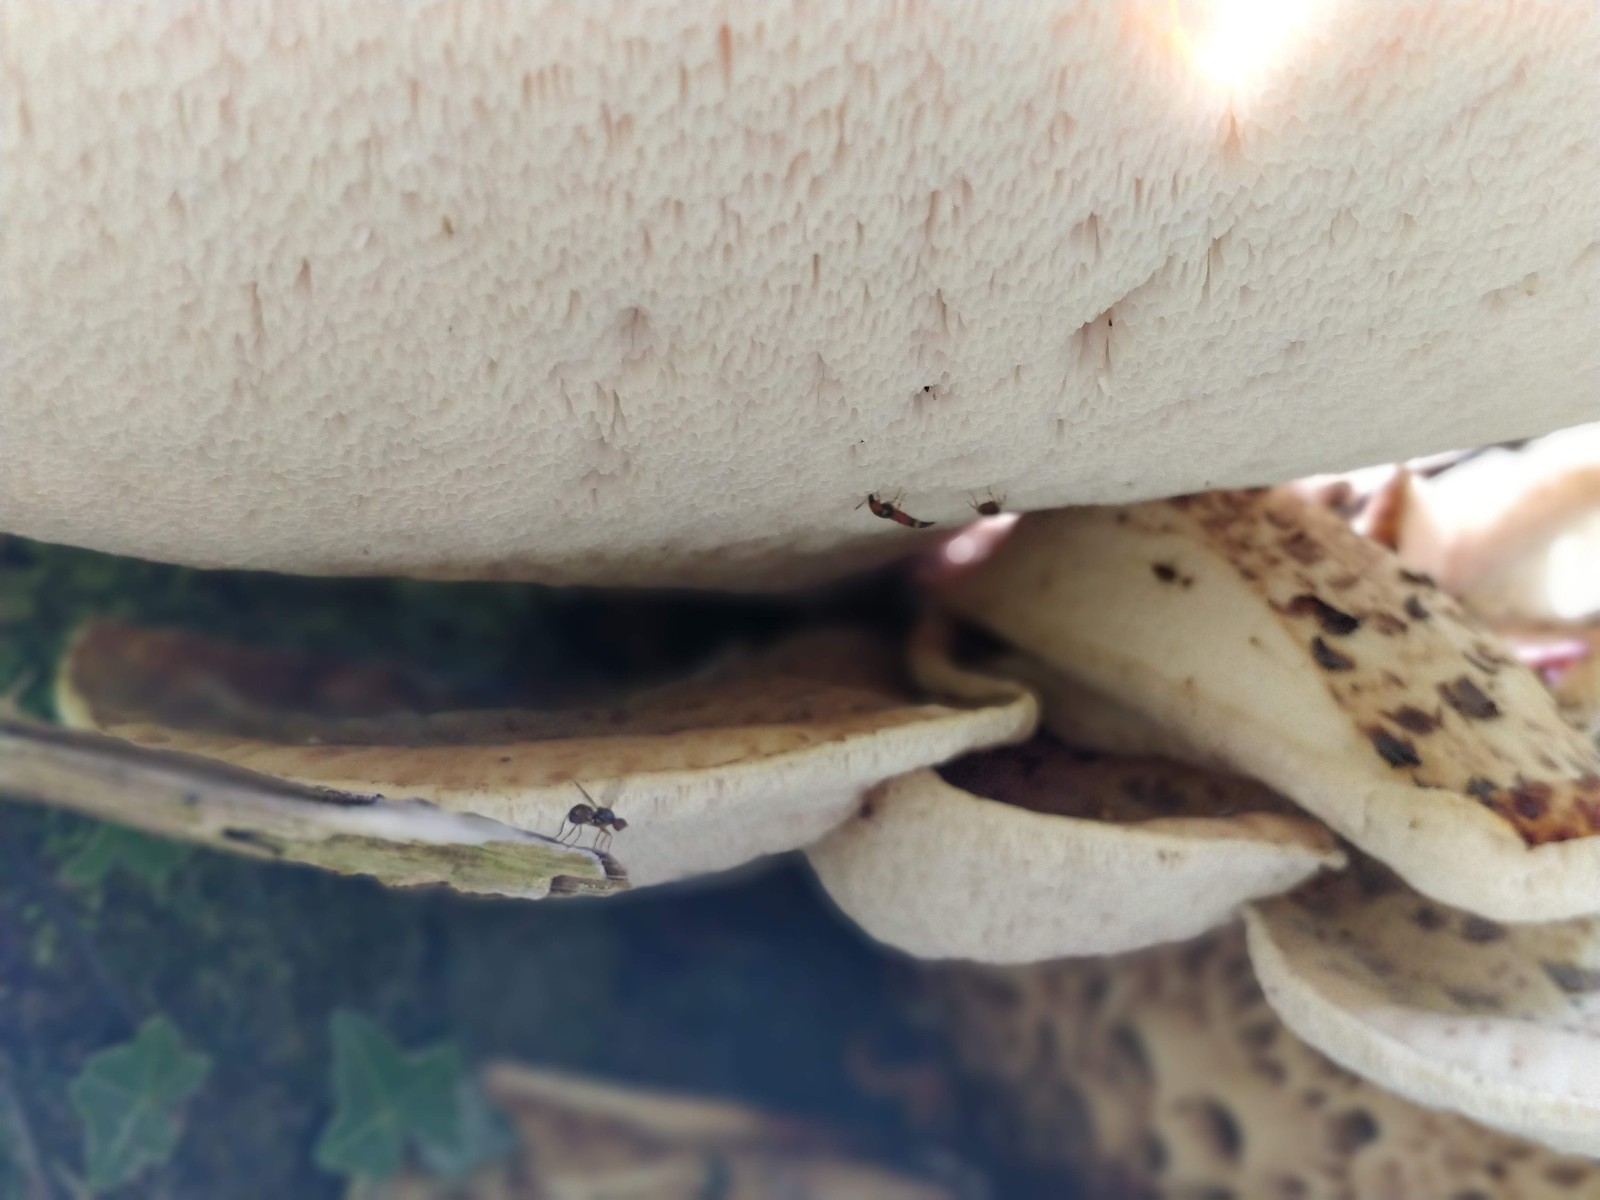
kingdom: Fungi
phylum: Basidiomycota
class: Agaricomycetes
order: Polyporales
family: Polyporaceae
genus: Cerioporus
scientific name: Cerioporus squamosus
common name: skællet stilkporesvamp
